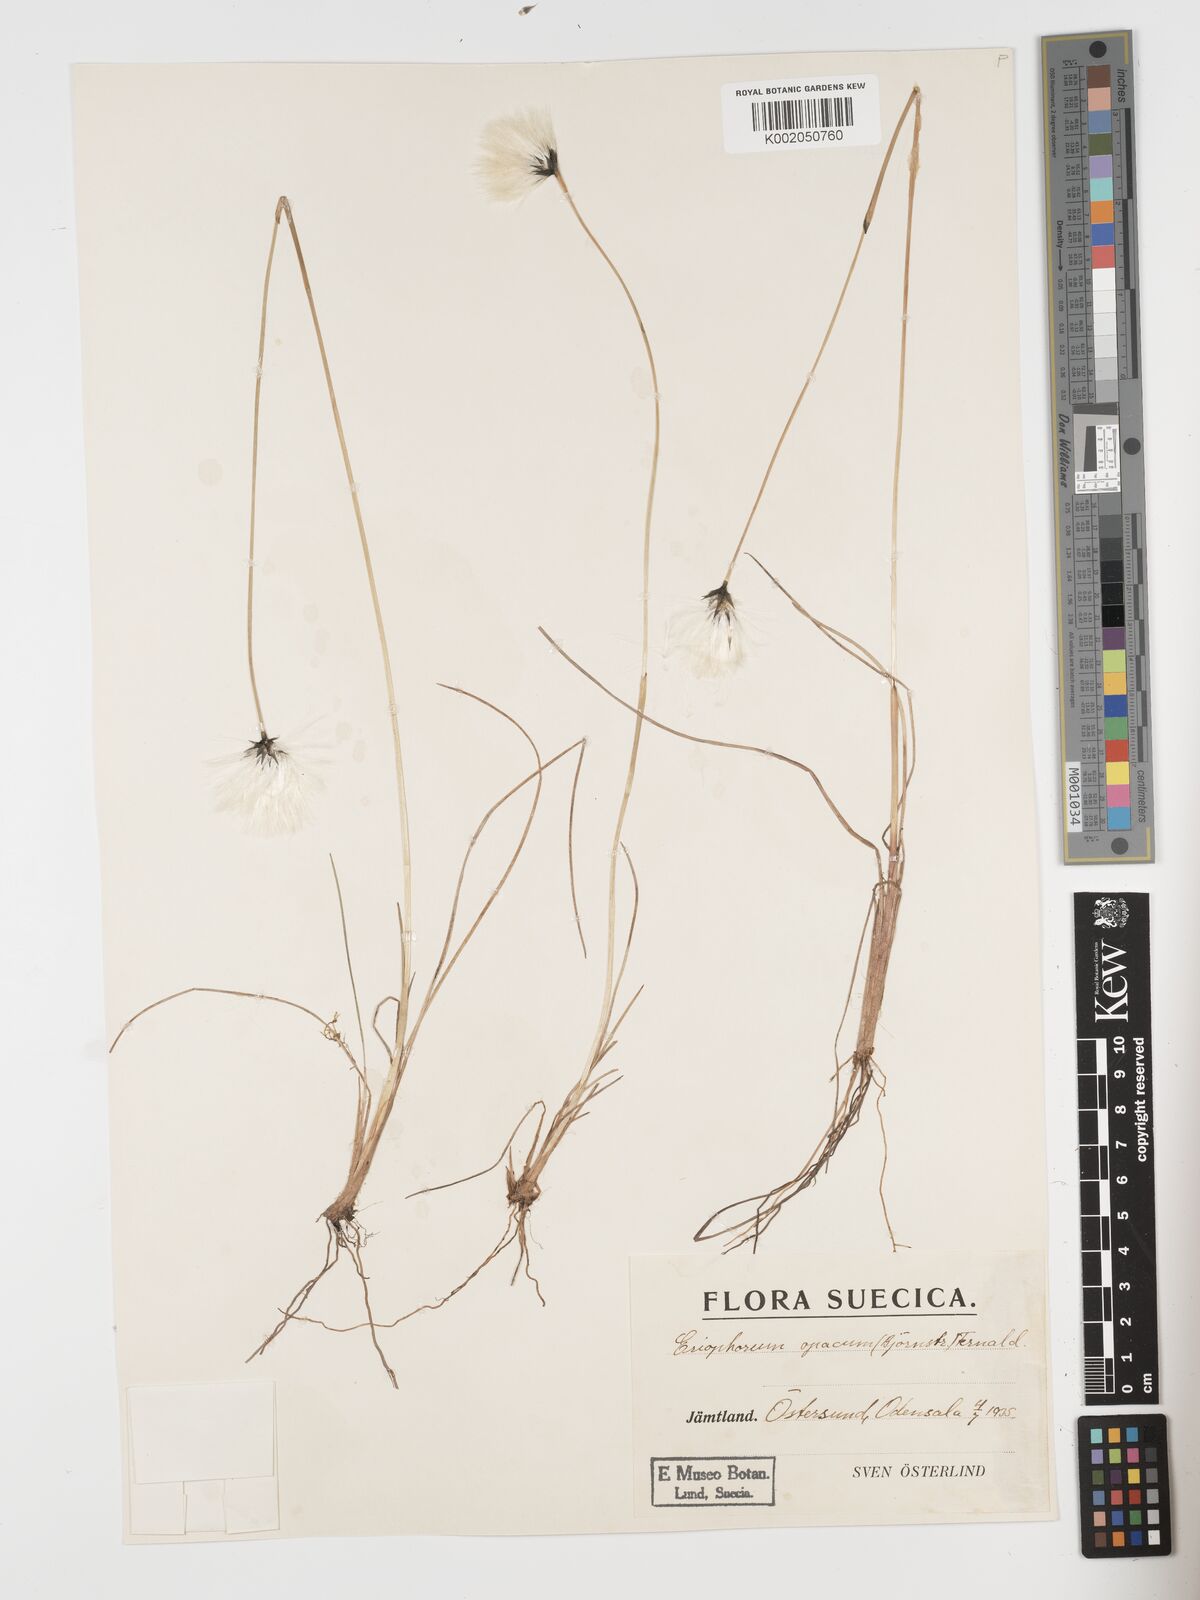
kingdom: Plantae
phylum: Tracheophyta
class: Liliopsida
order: Poales
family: Cyperaceae
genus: Eriophorum
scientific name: Eriophorum brachyantherum
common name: Closed-sheathed cottongrass
